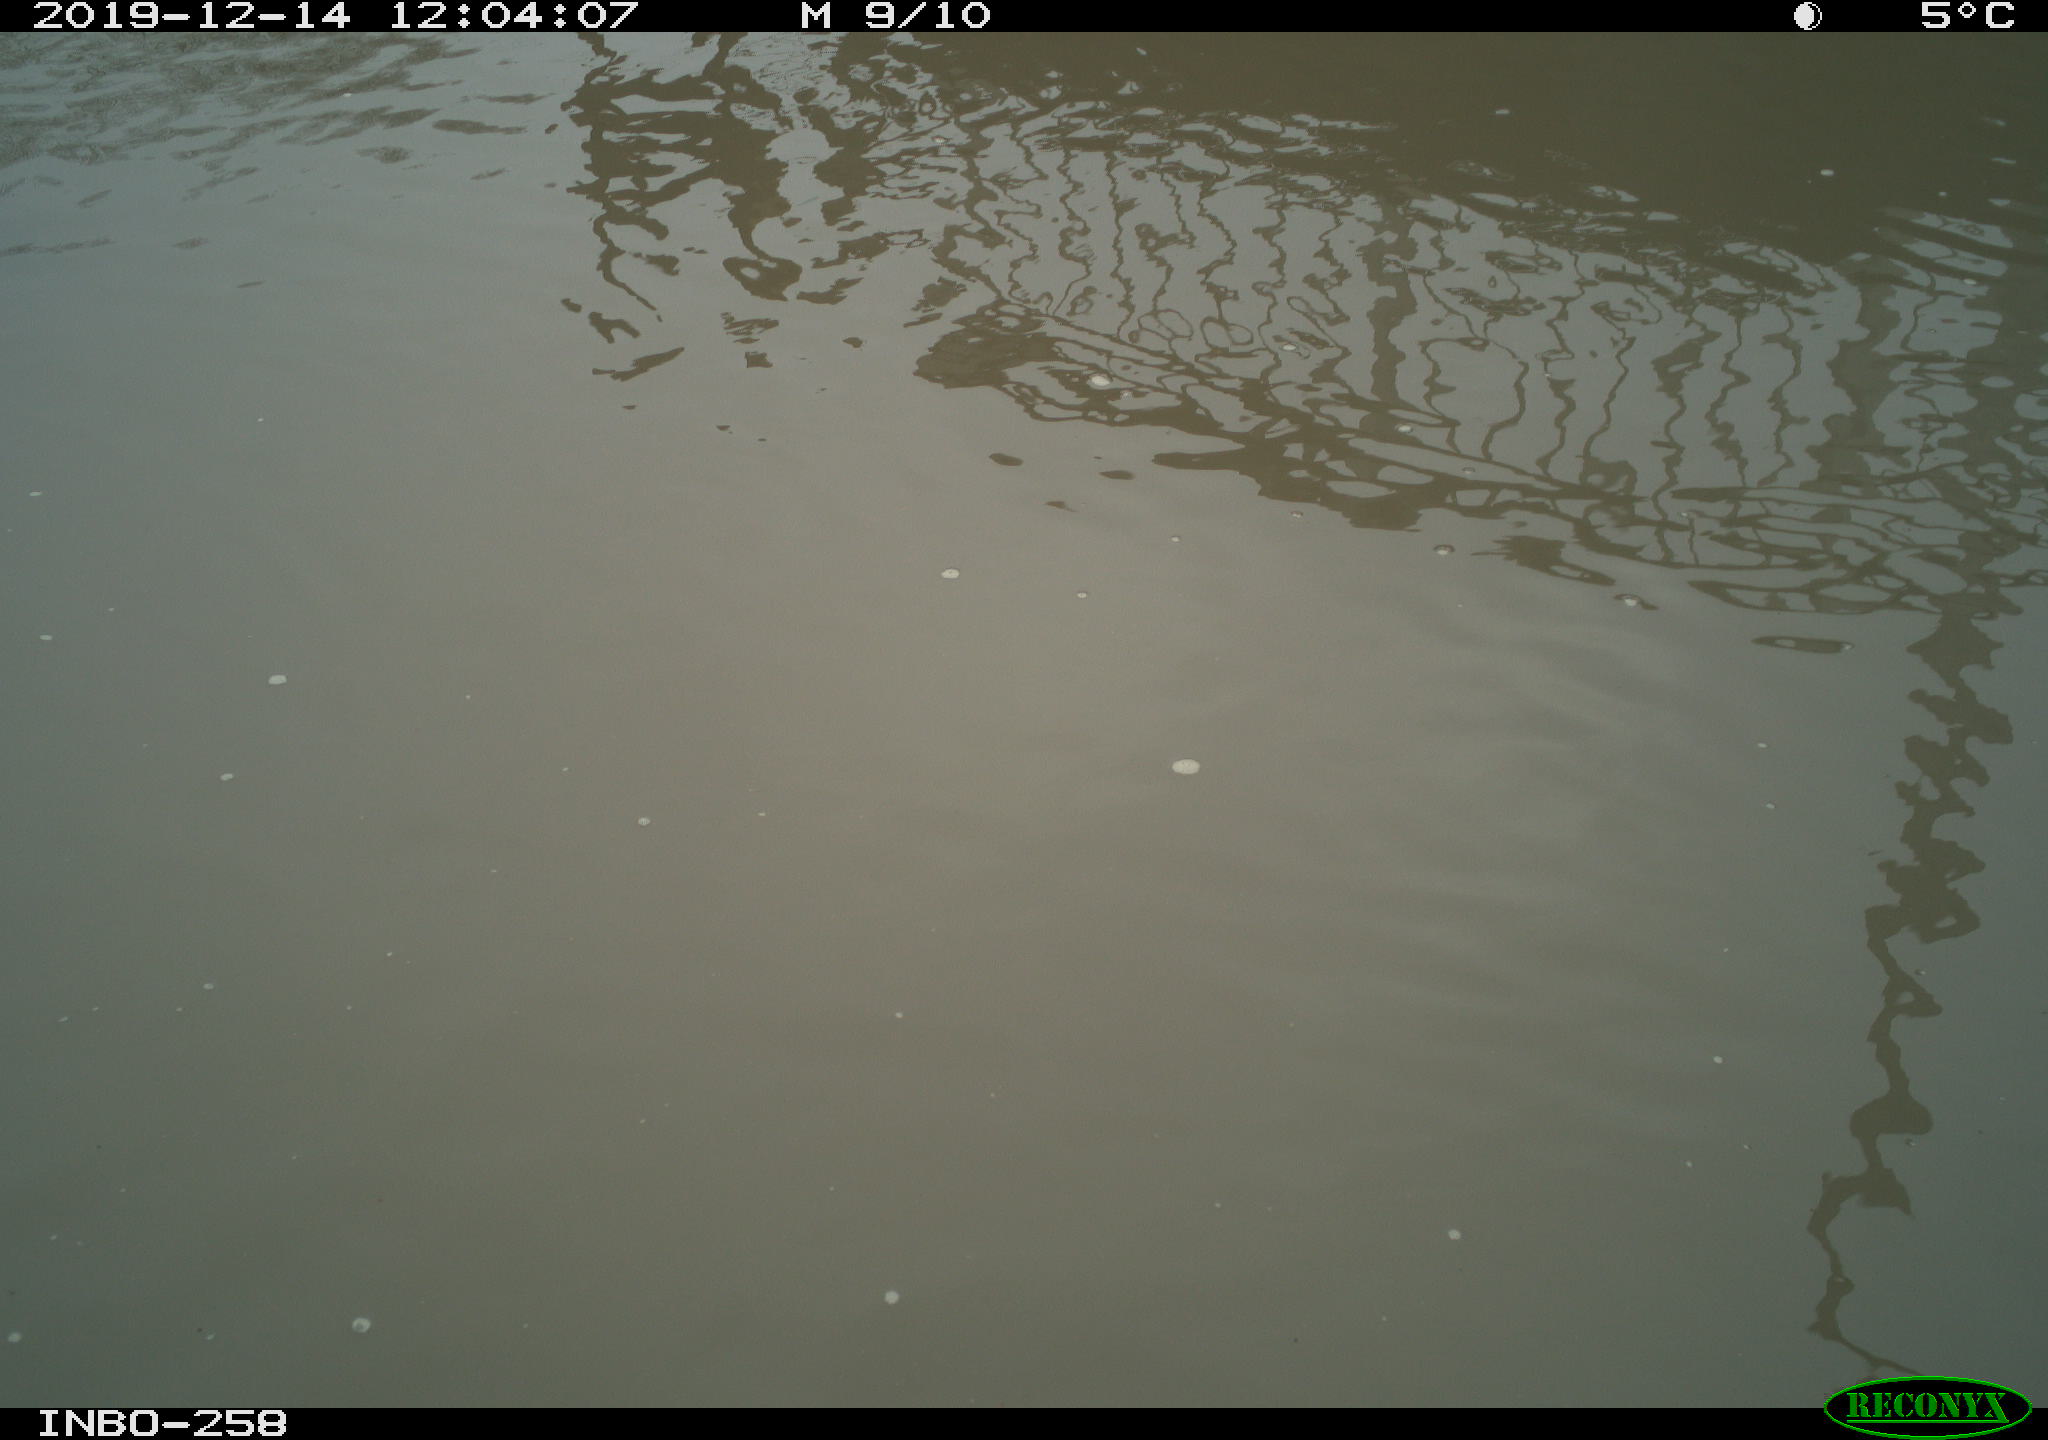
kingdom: Animalia
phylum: Chordata
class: Aves
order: Gruiformes
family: Rallidae
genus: Gallinula
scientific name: Gallinula chloropus
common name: Common moorhen
